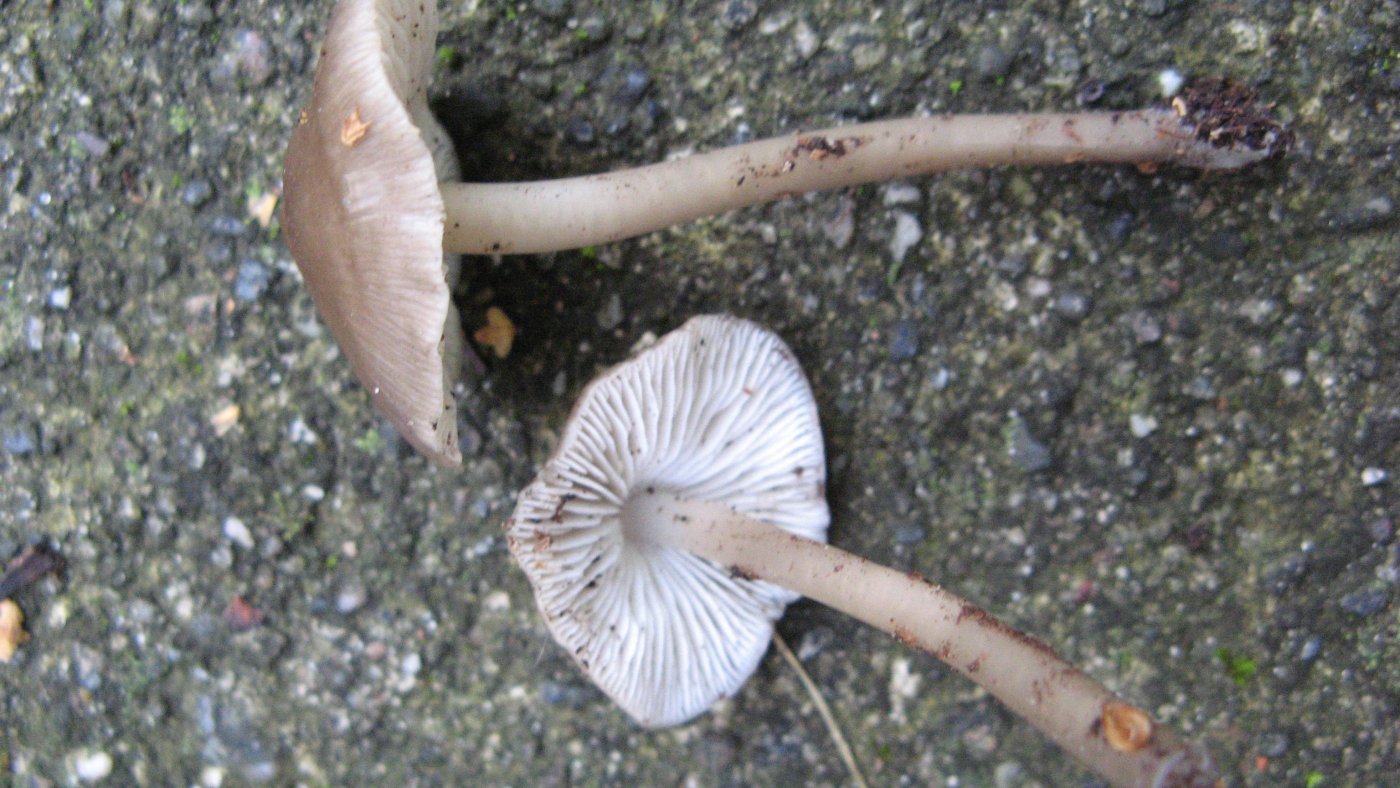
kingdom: Fungi
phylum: Basidiomycota
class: Agaricomycetes
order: Agaricales
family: Mycenaceae
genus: Mycena
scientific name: Mycena galericulata
